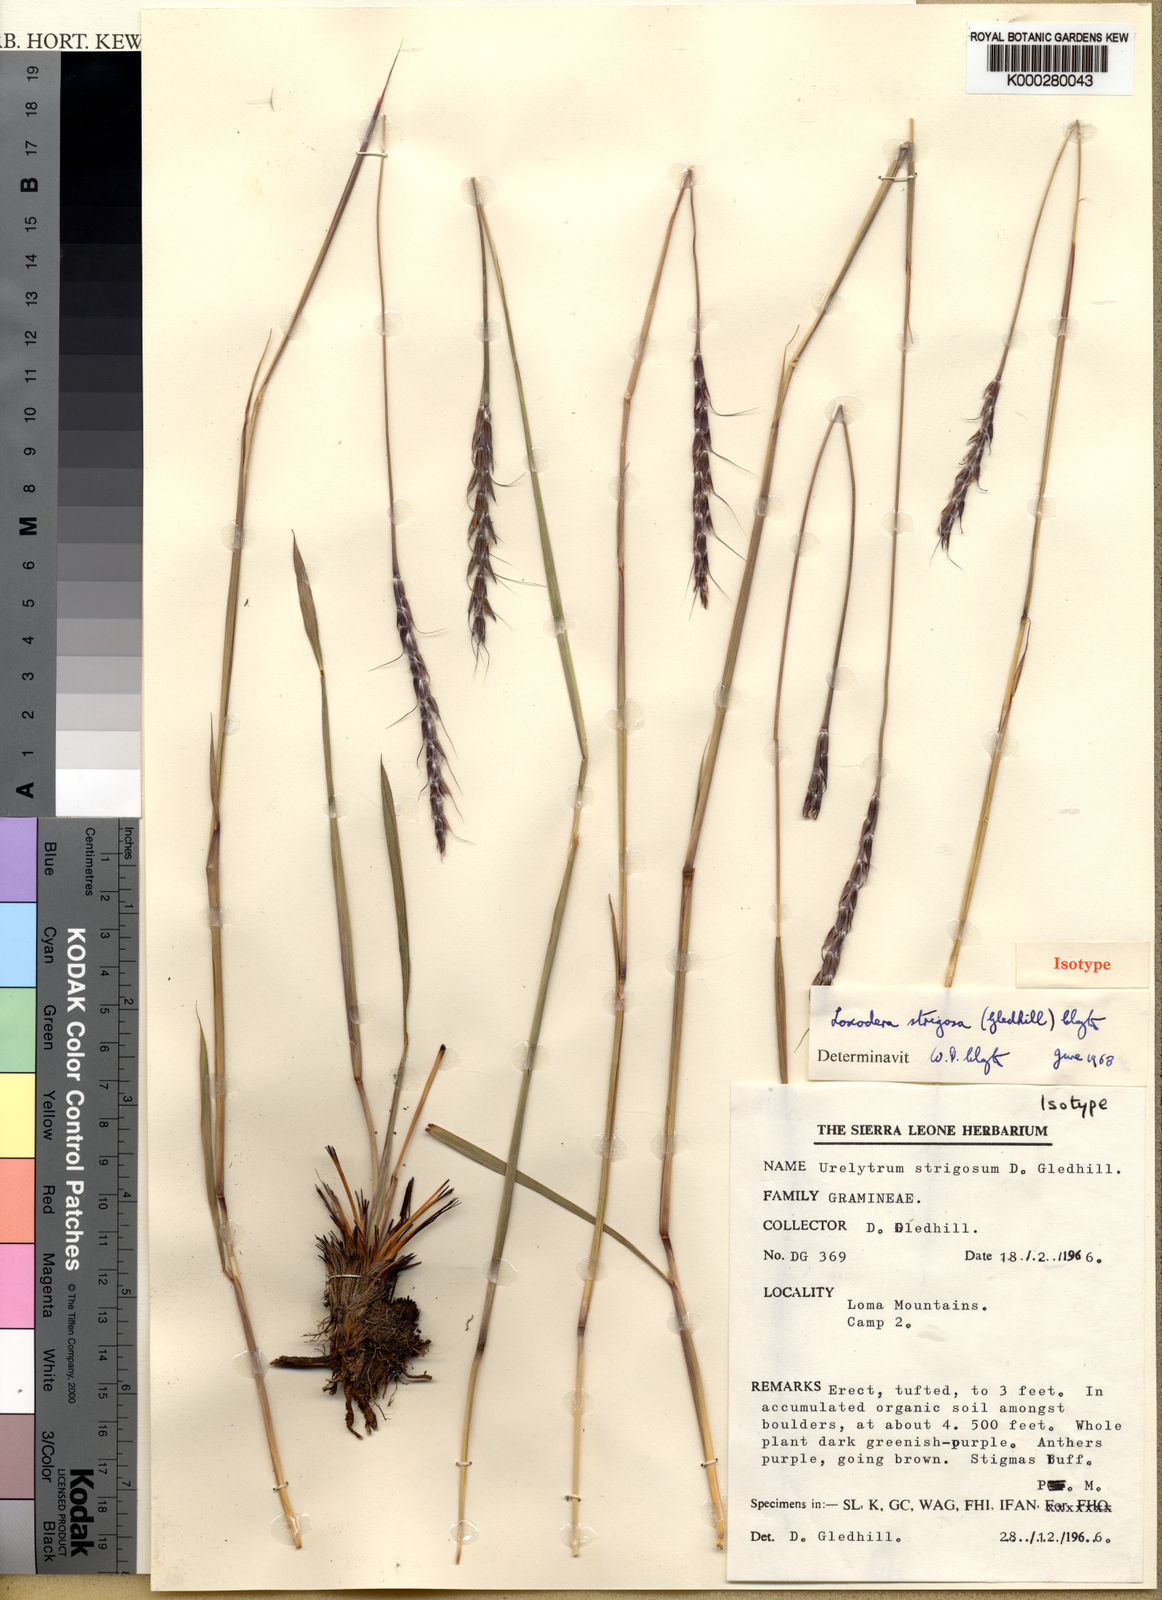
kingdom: Plantae
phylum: Tracheophyta
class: Liliopsida
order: Poales
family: Poaceae
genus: Loxodera
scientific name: Loxodera strigosa
